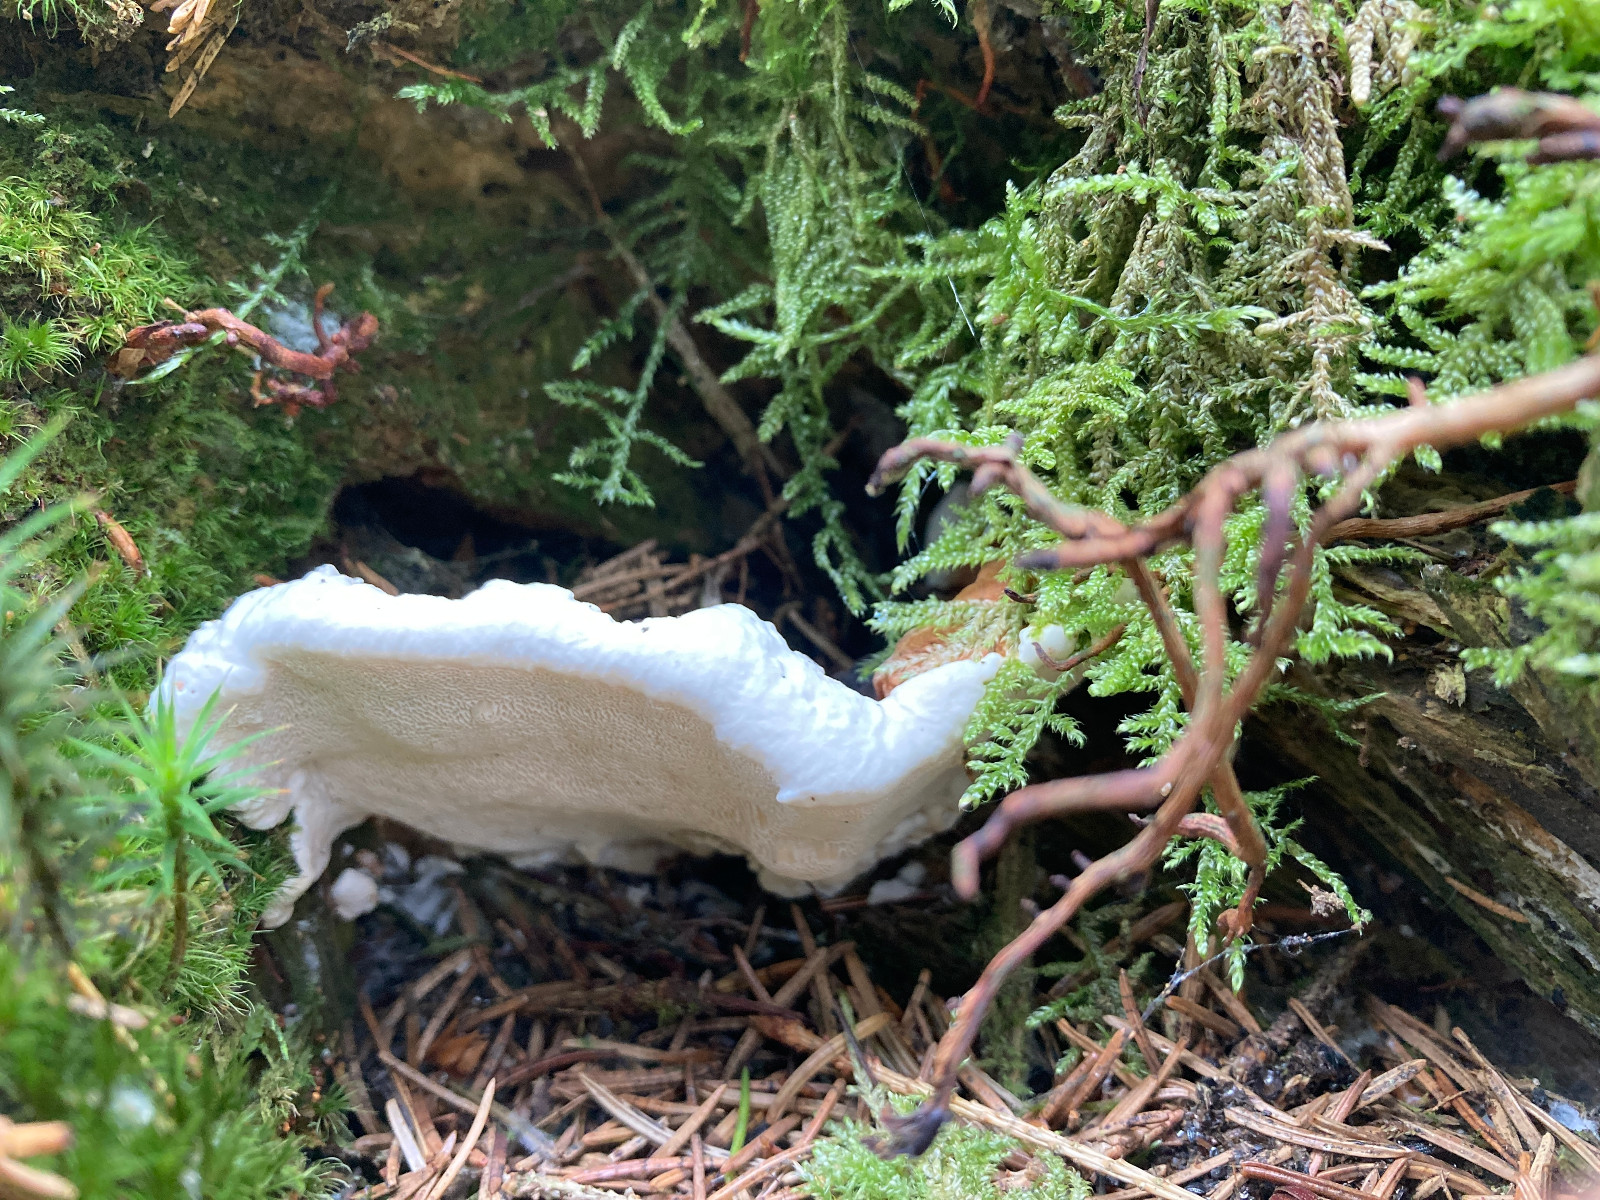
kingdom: Fungi
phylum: Basidiomycota
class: Agaricomycetes
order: Russulales
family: Bondarzewiaceae
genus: Heterobasidion
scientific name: Heterobasidion annosum
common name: almindelig rodfordærver
